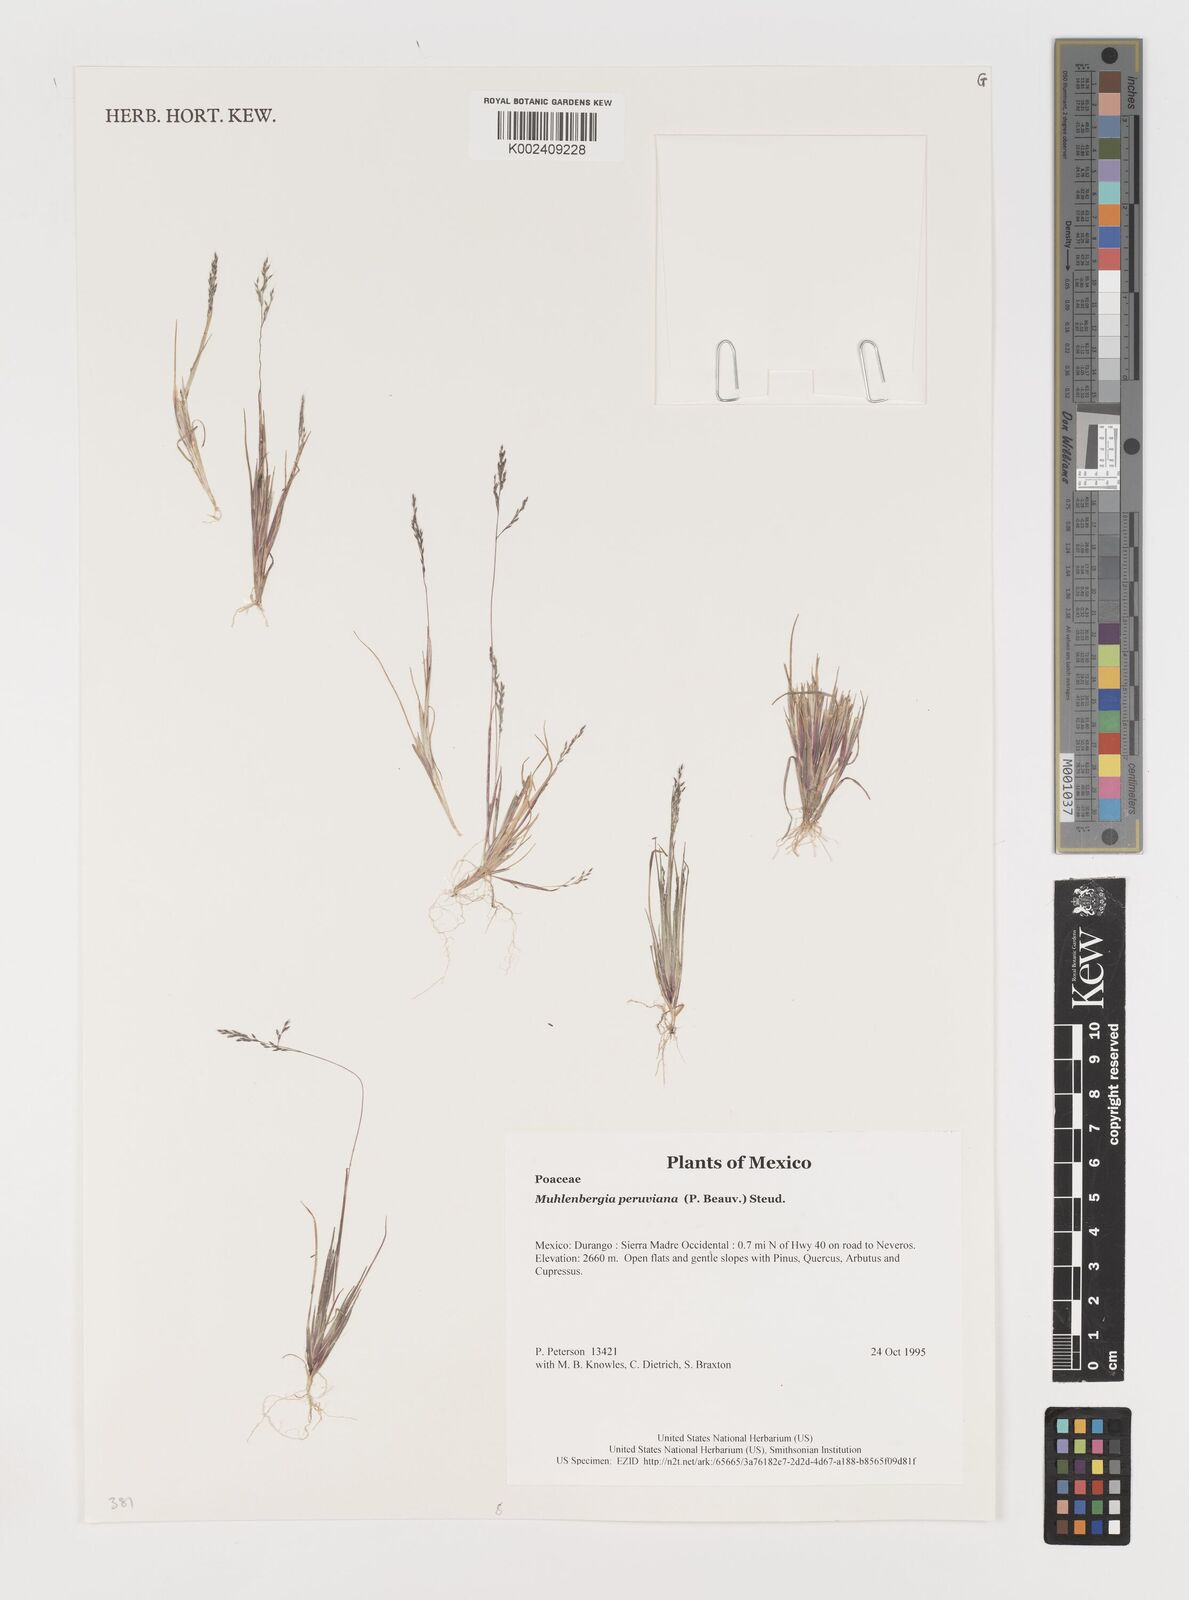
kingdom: Plantae
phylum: Tracheophyta
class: Liliopsida
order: Poales
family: Poaceae
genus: Muhlenbergia
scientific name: Muhlenbergia peruviana
